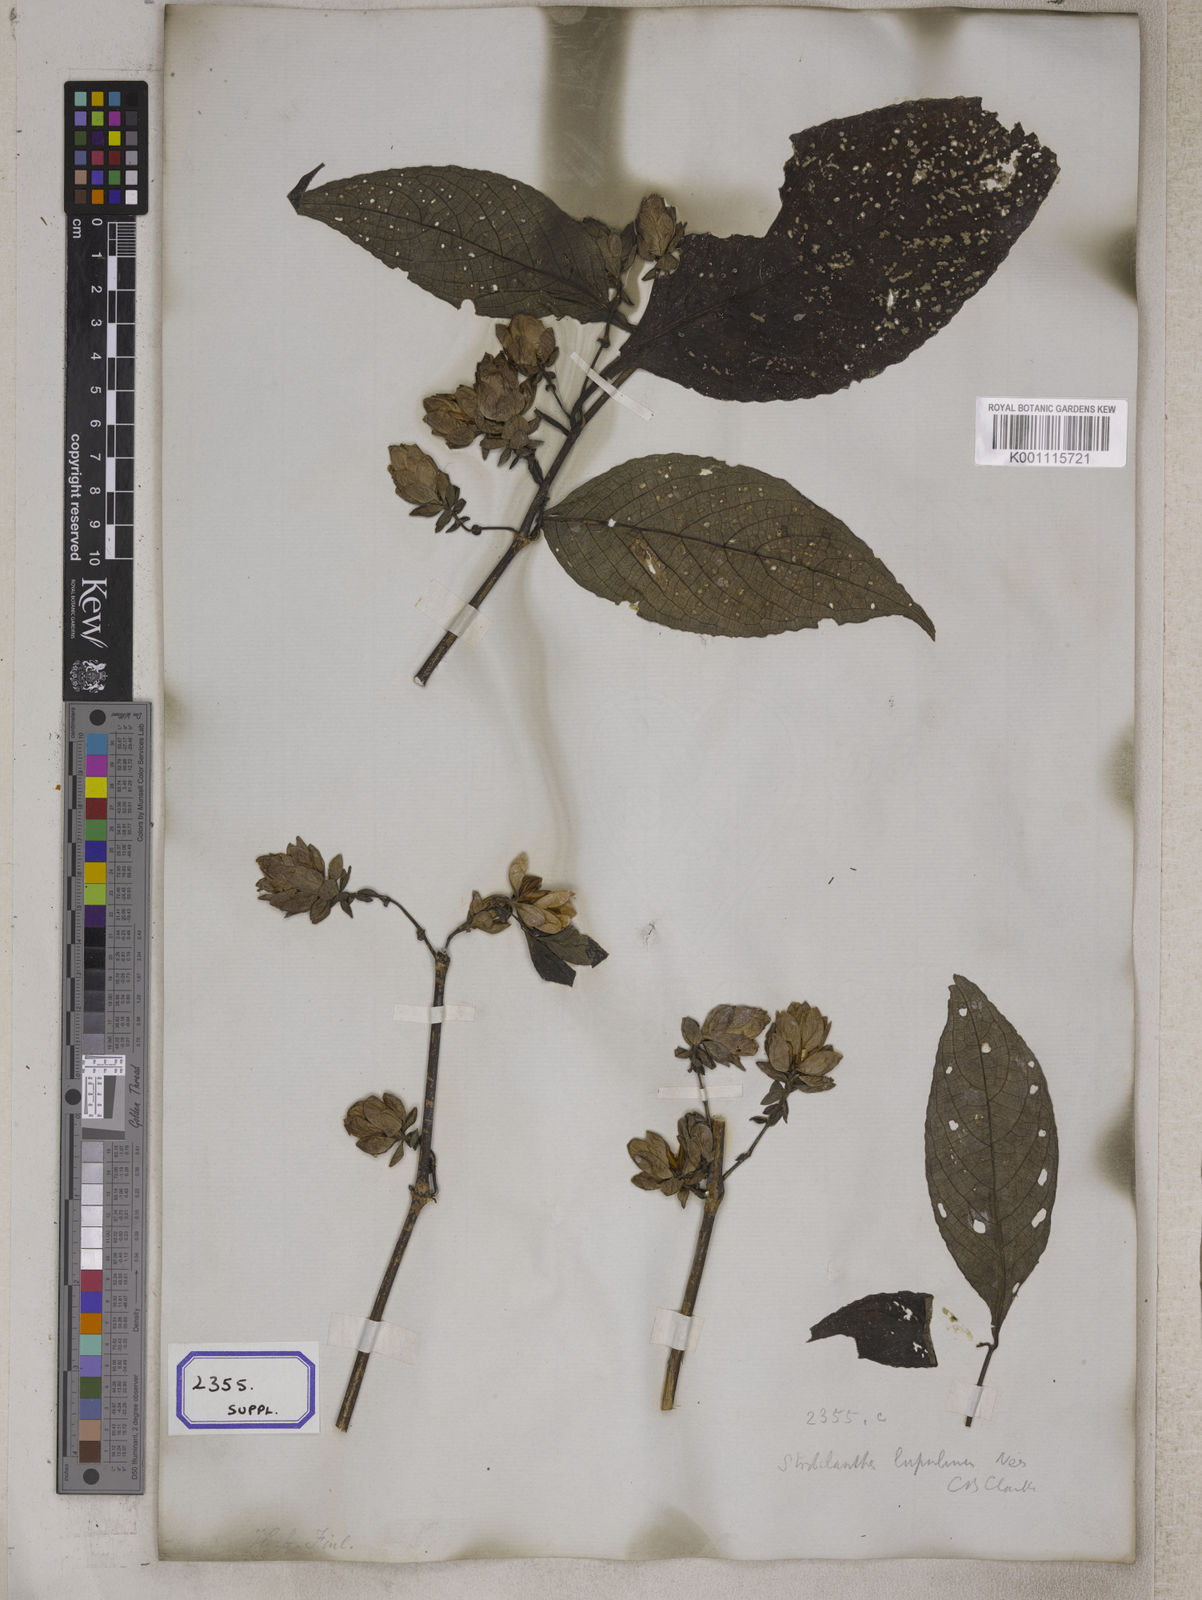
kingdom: Plantae
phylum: Tracheophyta
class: Magnoliopsida
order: Lamiales
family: Acanthaceae
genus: Strobilanthes
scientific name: Strobilanthes lupulina
